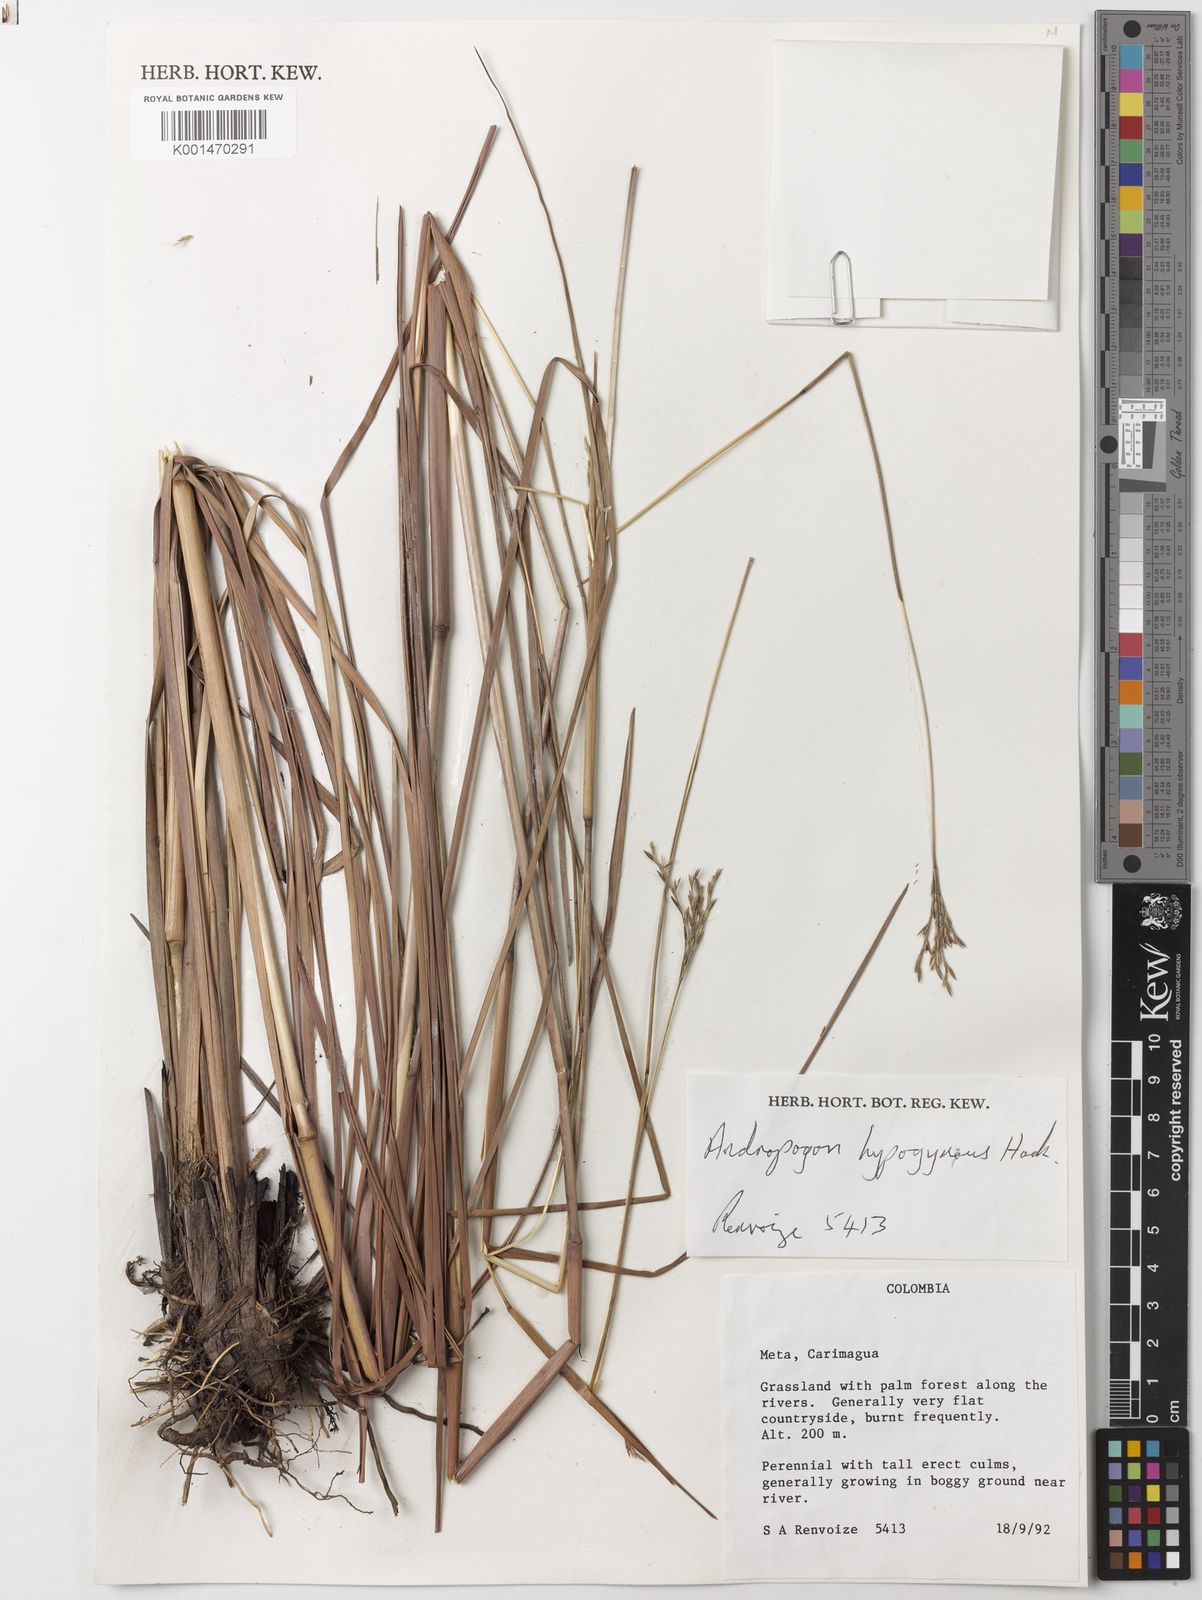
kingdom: Plantae
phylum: Tracheophyta
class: Liliopsida
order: Poales
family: Poaceae
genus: Andropogon
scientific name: Andropogon hypogynus
